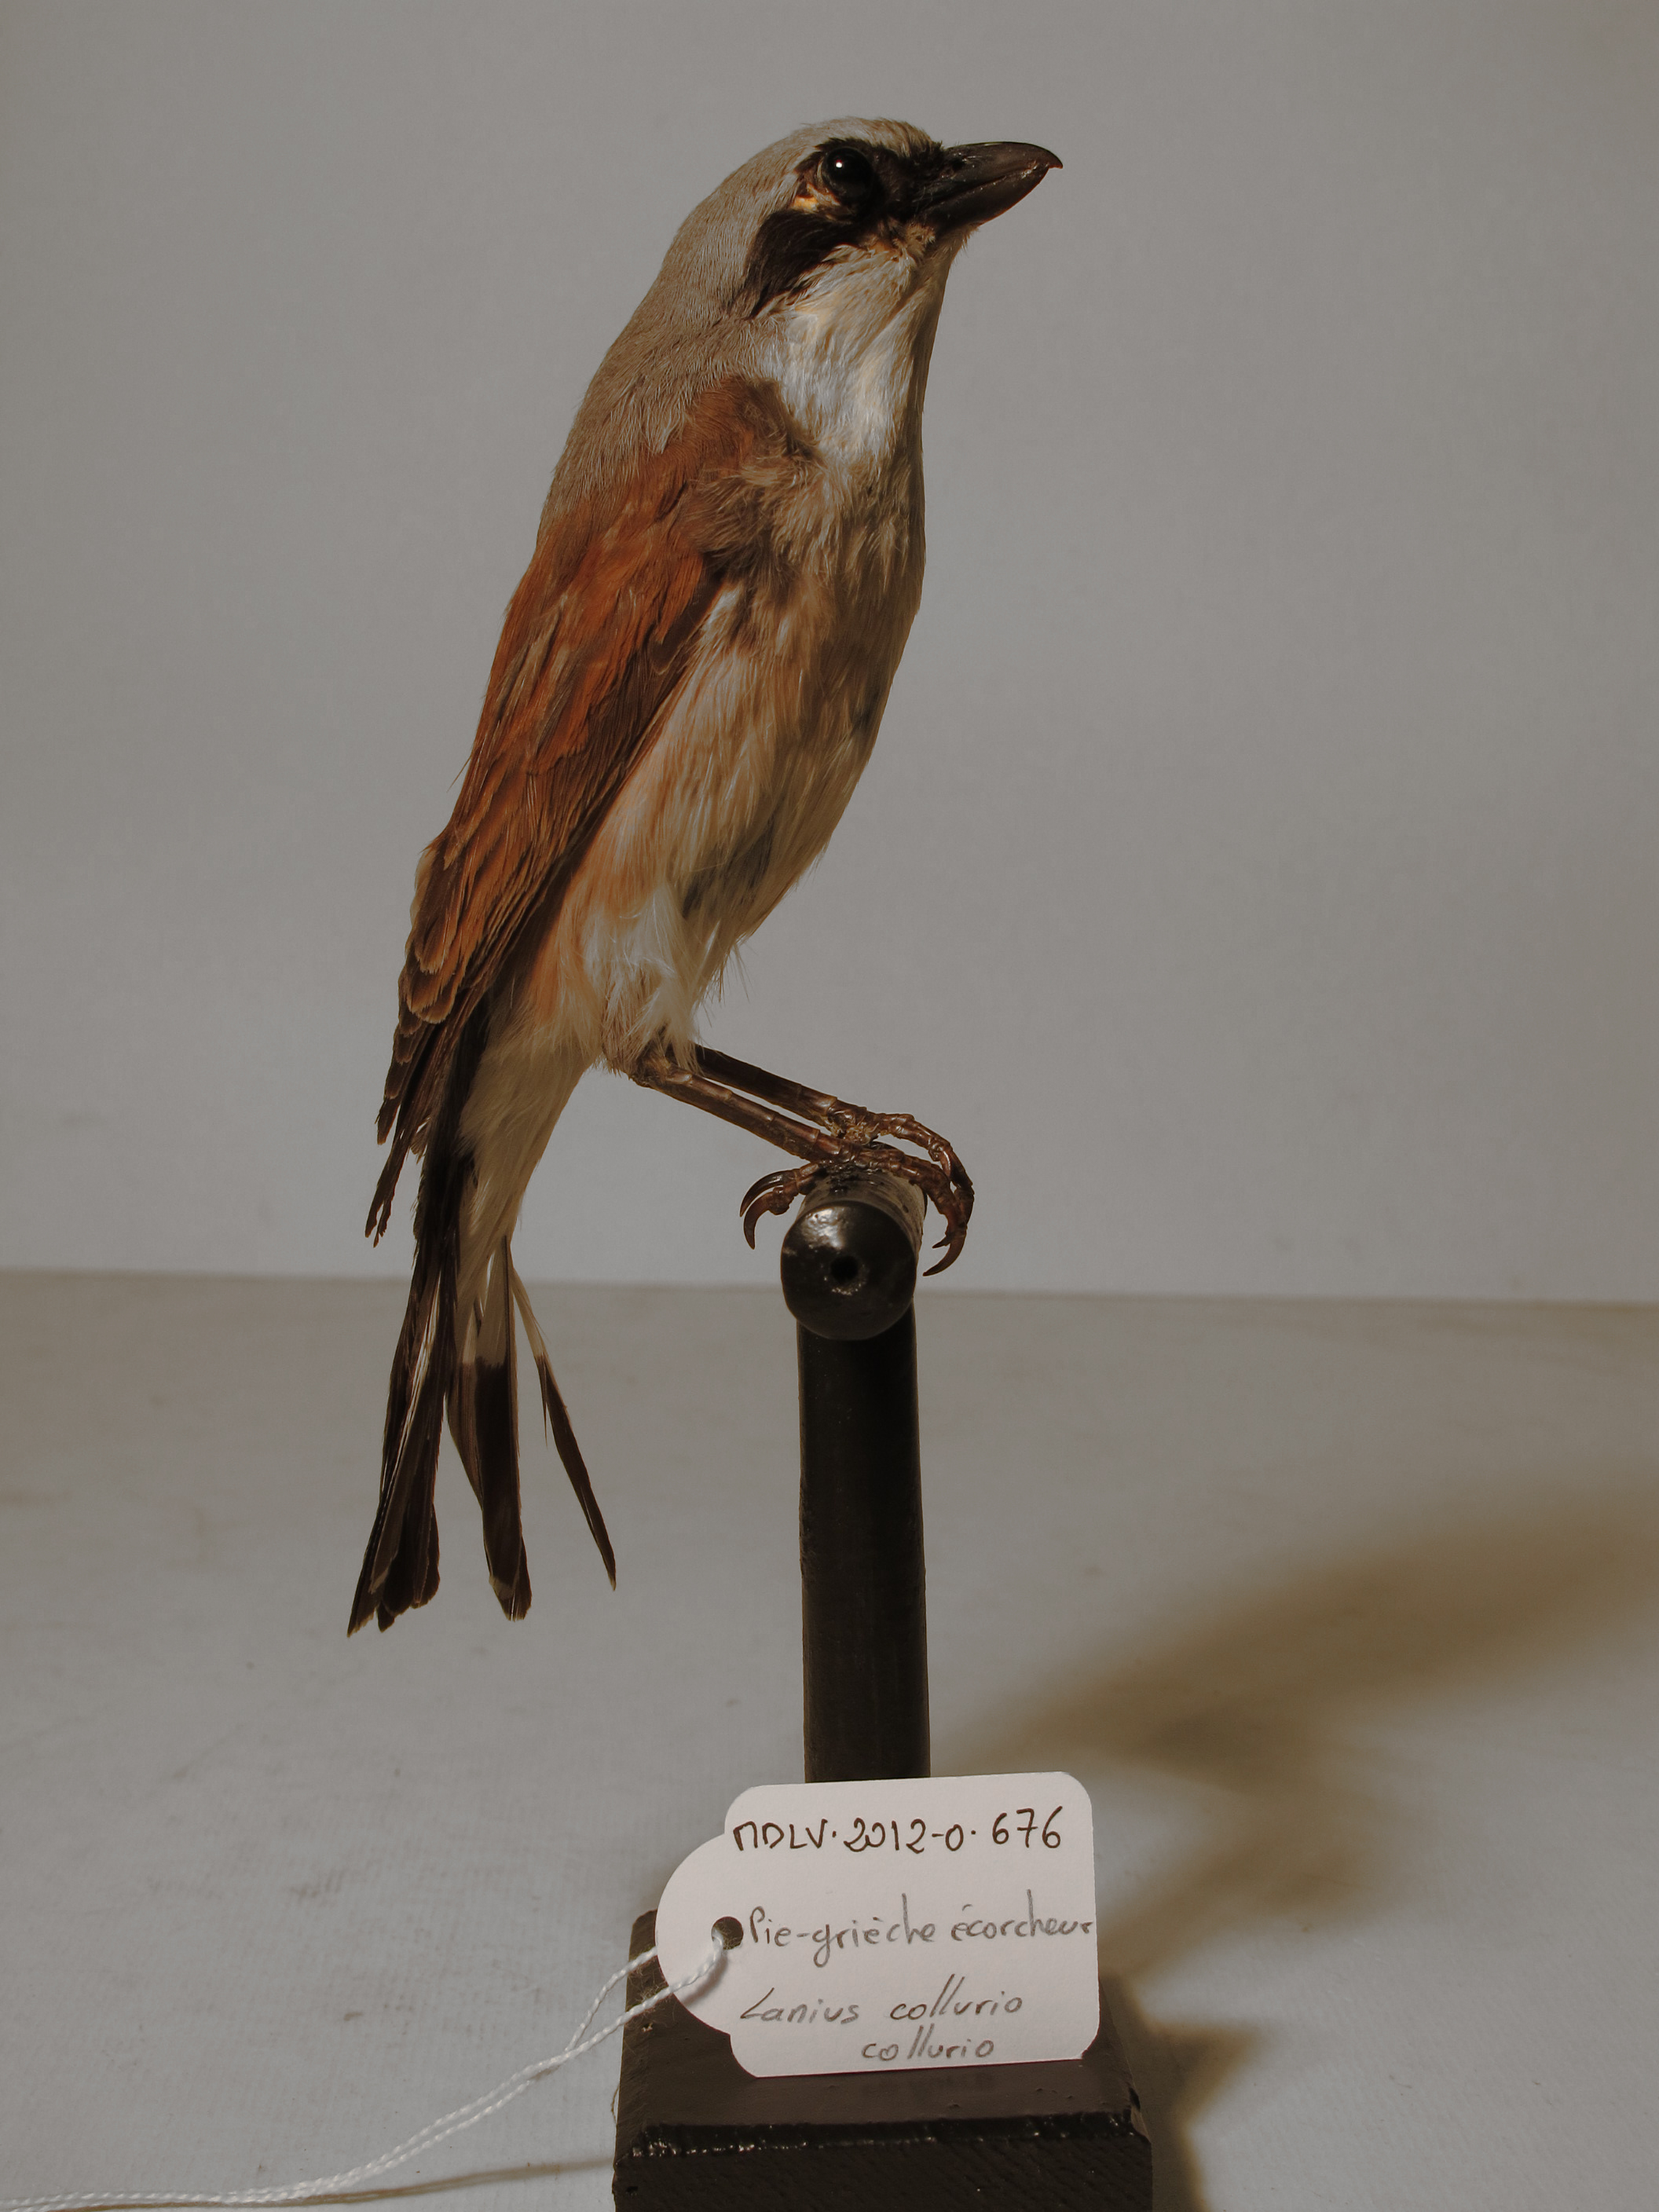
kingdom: Animalia
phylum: Chordata
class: Aves
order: Passeriformes
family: Laniidae
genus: Lanius
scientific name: Lanius collurio
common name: Red-backed Shrike
